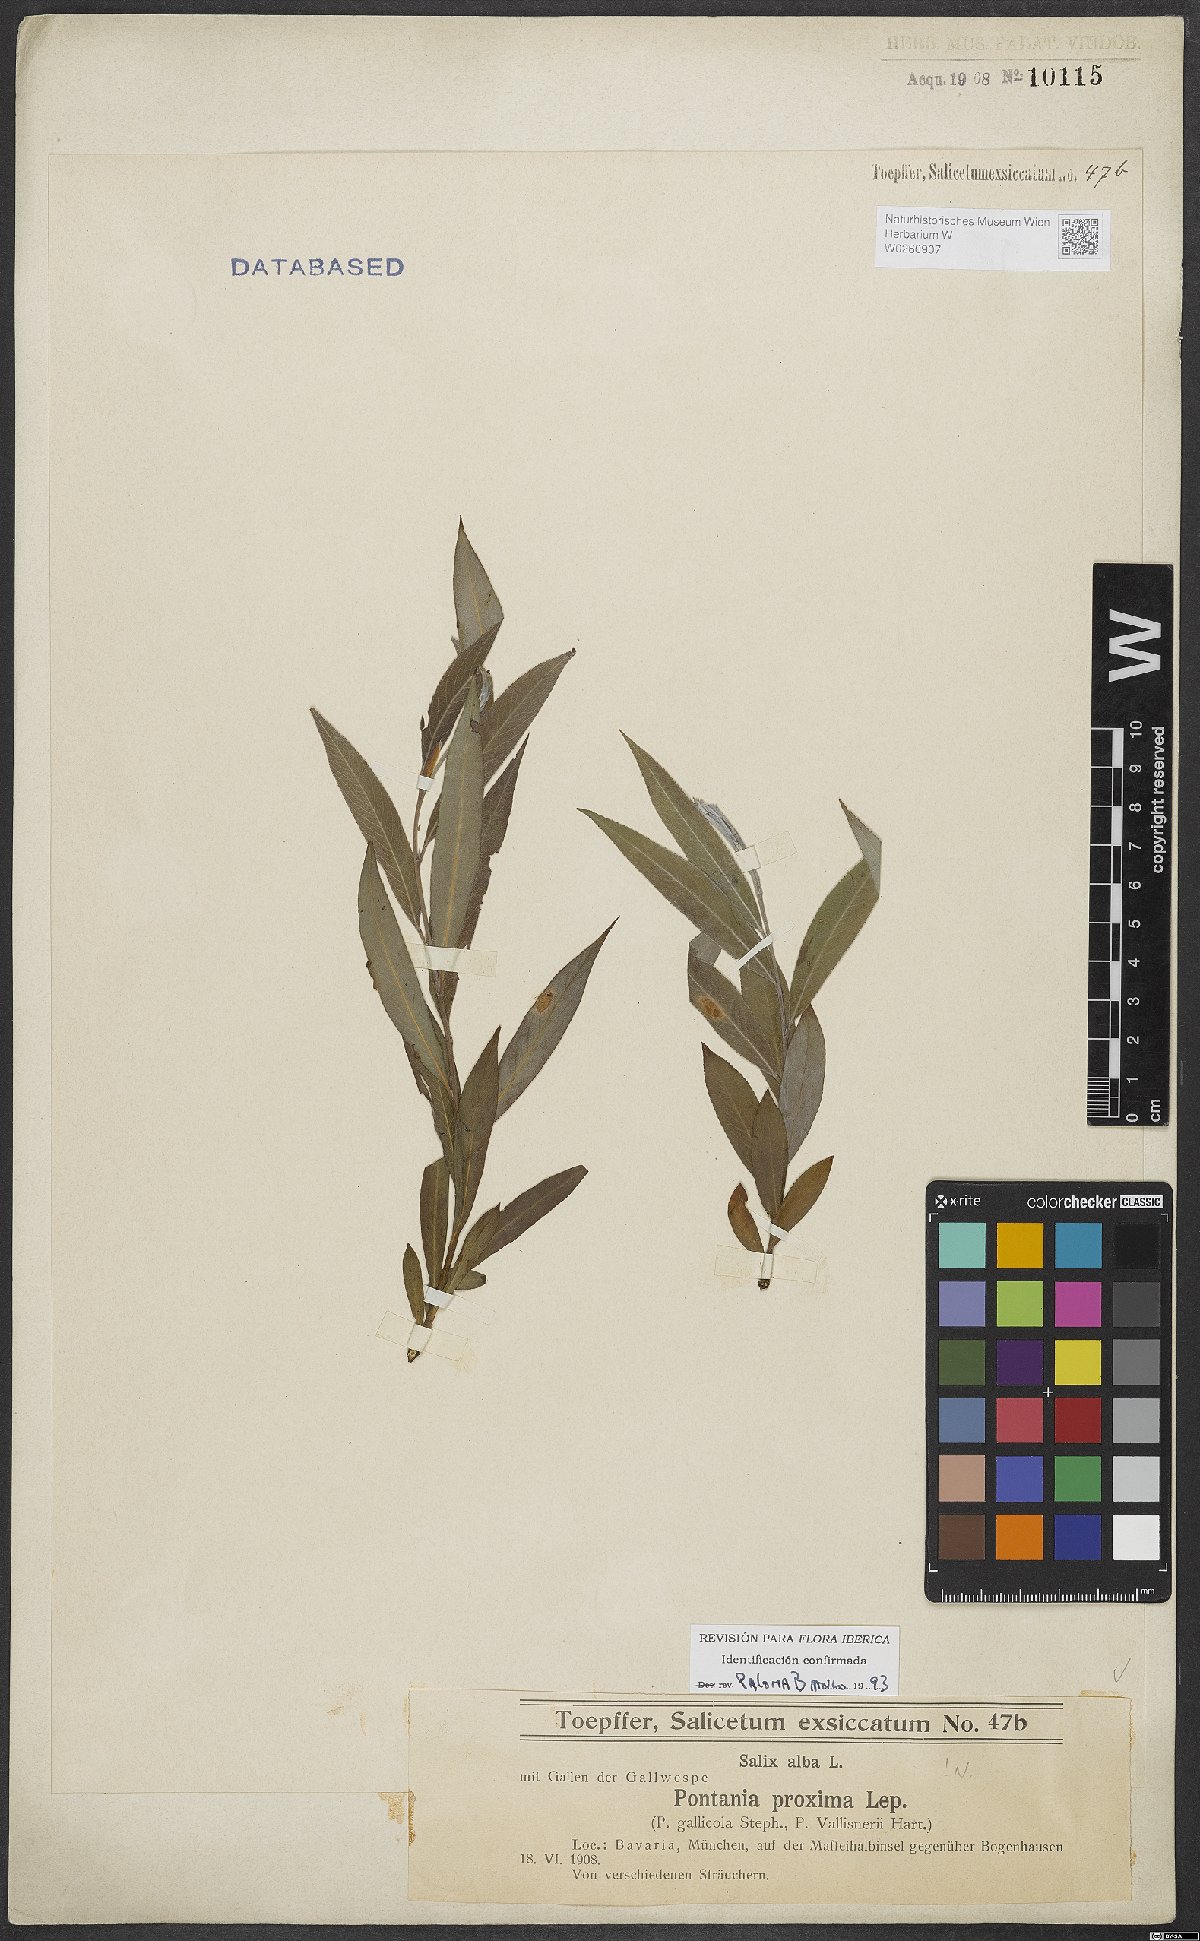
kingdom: Plantae
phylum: Tracheophyta
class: Magnoliopsida
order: Malpighiales
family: Salicaceae
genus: Salix
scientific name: Salix alba
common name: White willow
